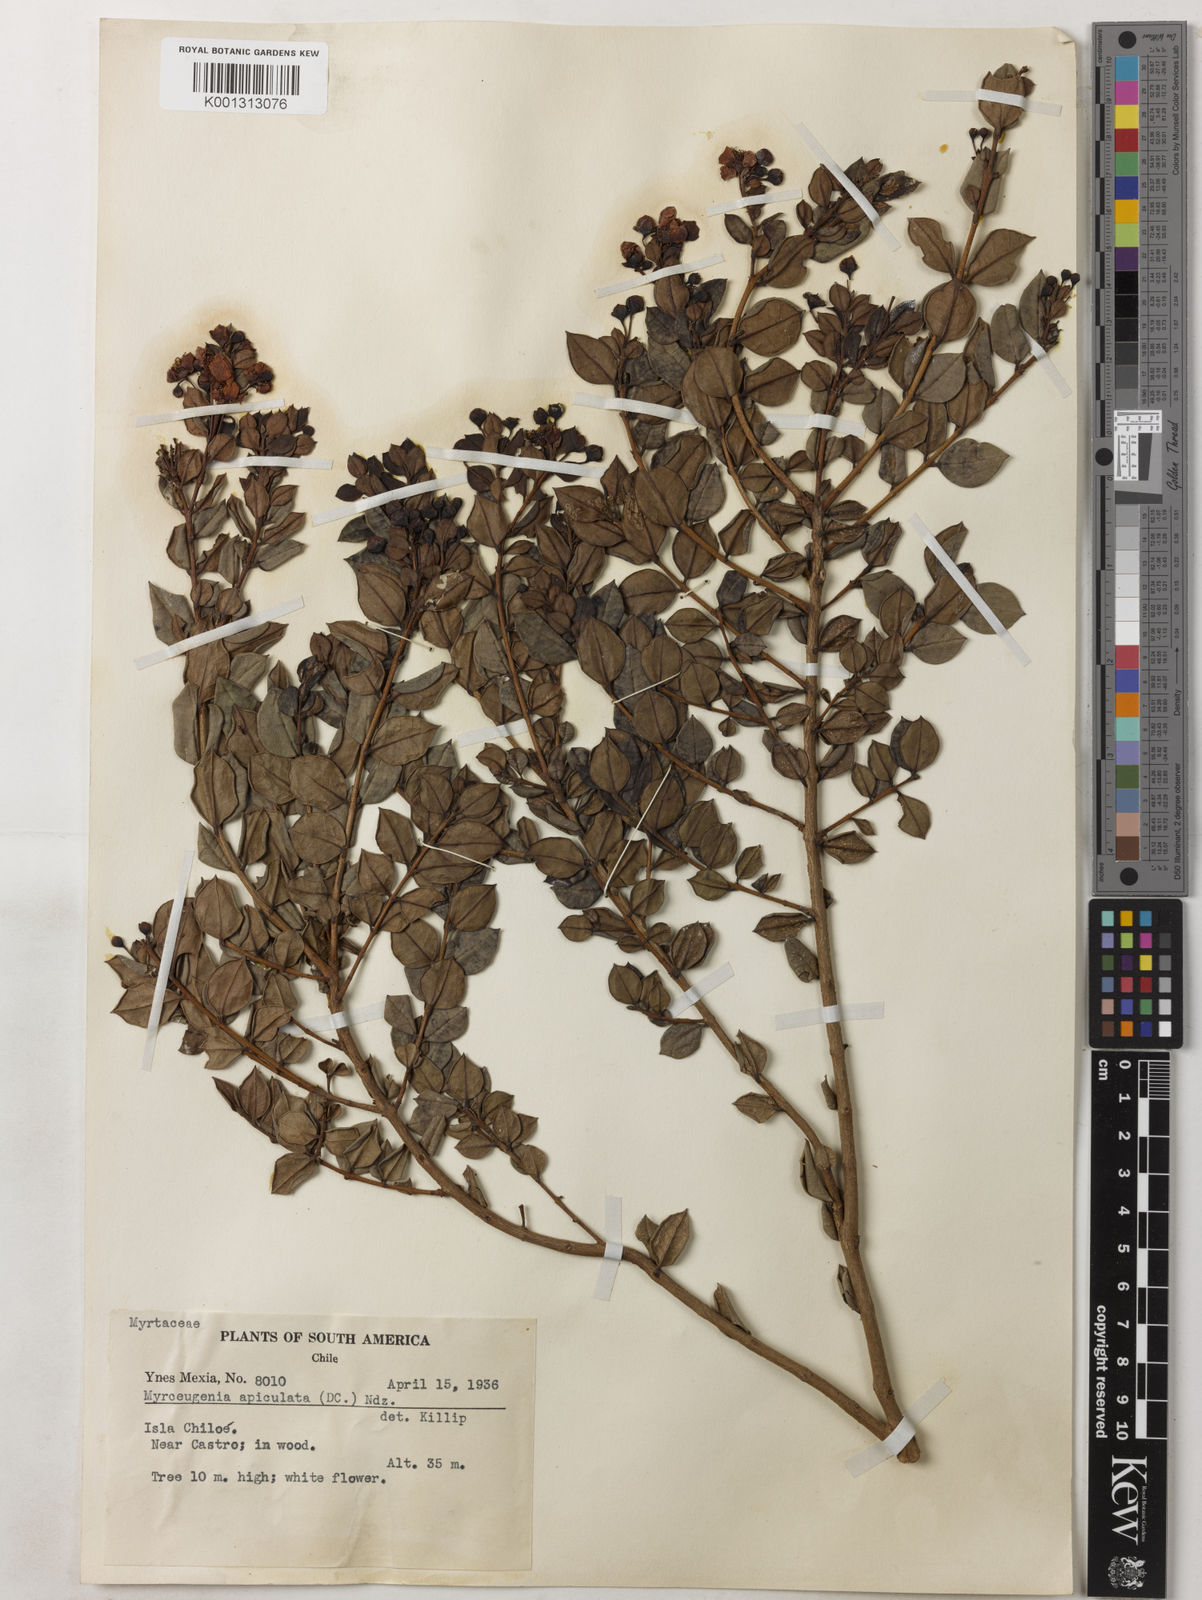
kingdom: Plantae
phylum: Tracheophyta
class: Magnoliopsida
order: Myrtales
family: Myrtaceae
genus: Luma
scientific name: Luma apiculata
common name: Chilean myrtle
